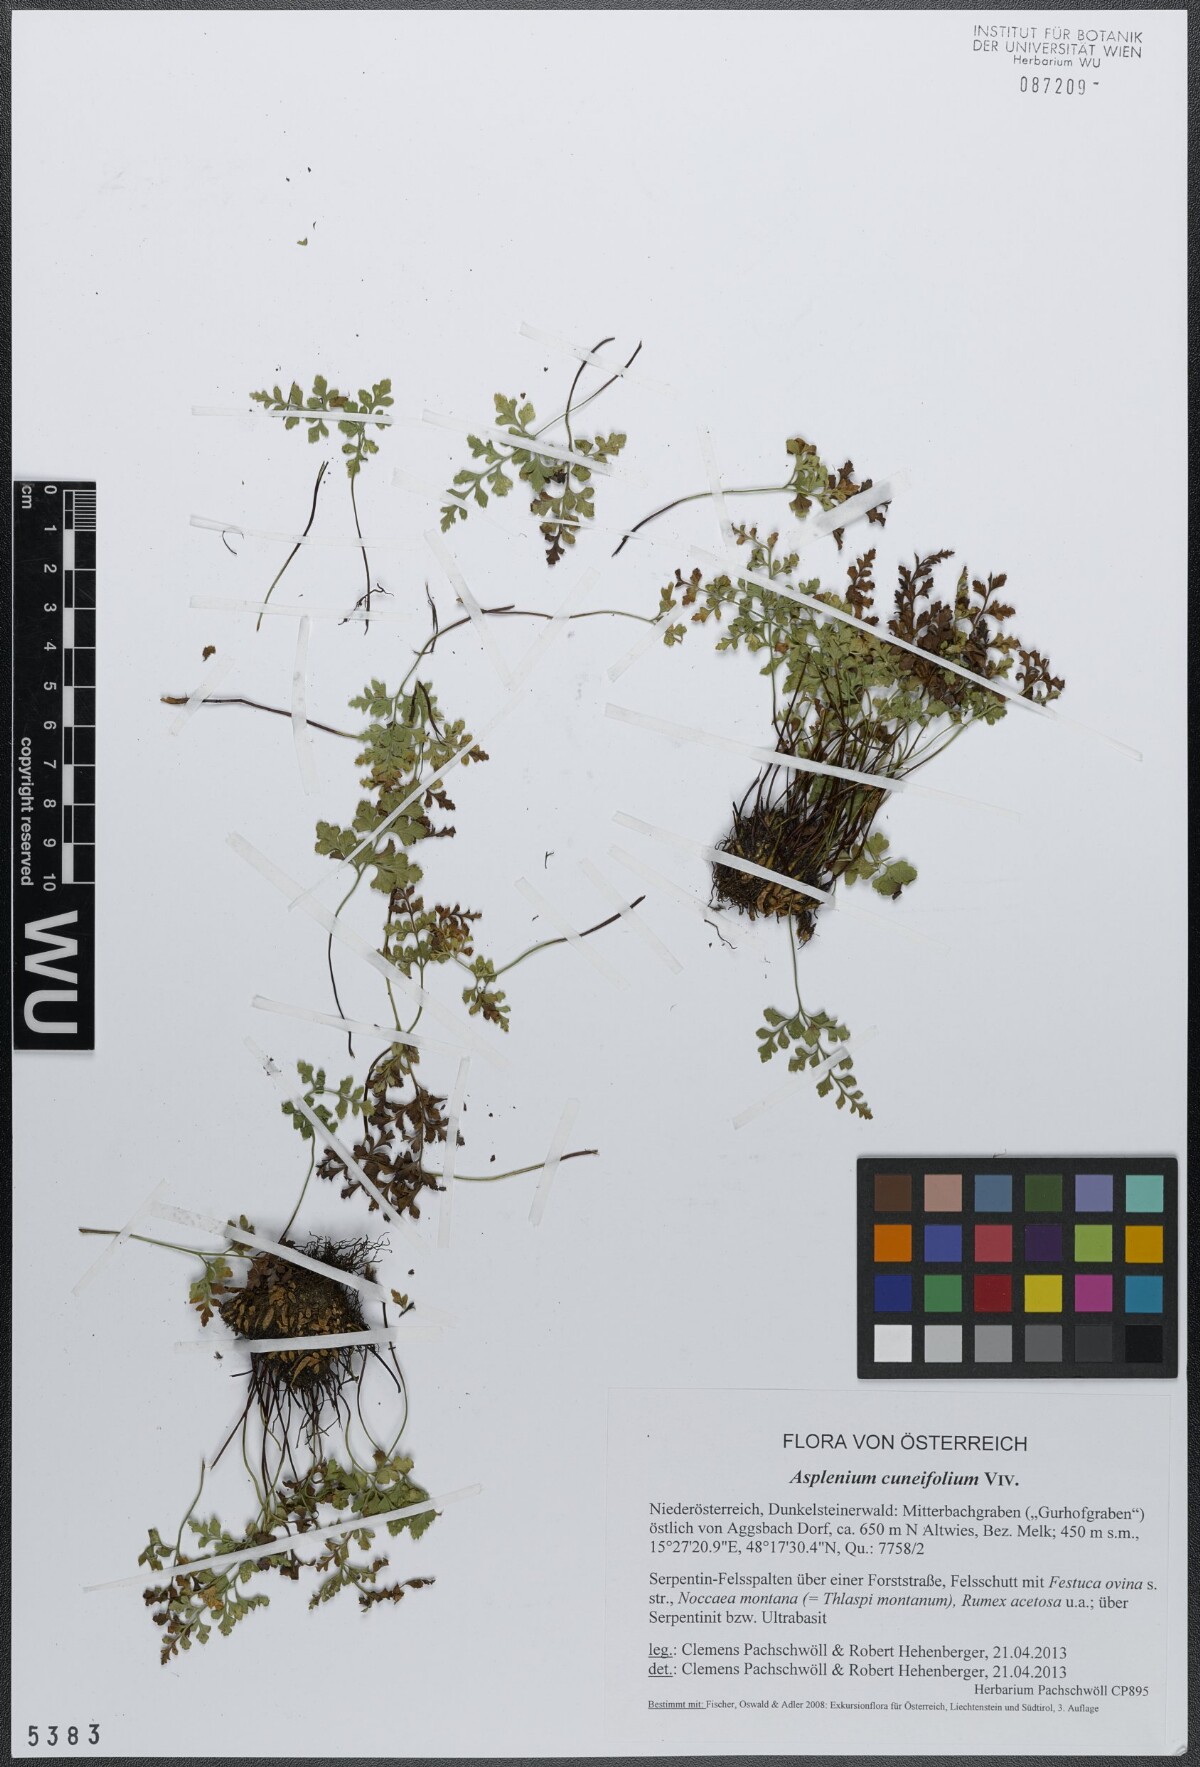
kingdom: Plantae
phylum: Tracheophyta
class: Polypodiopsida
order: Polypodiales
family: Aspleniaceae
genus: Asplenium
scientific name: Asplenium cuneifolium
